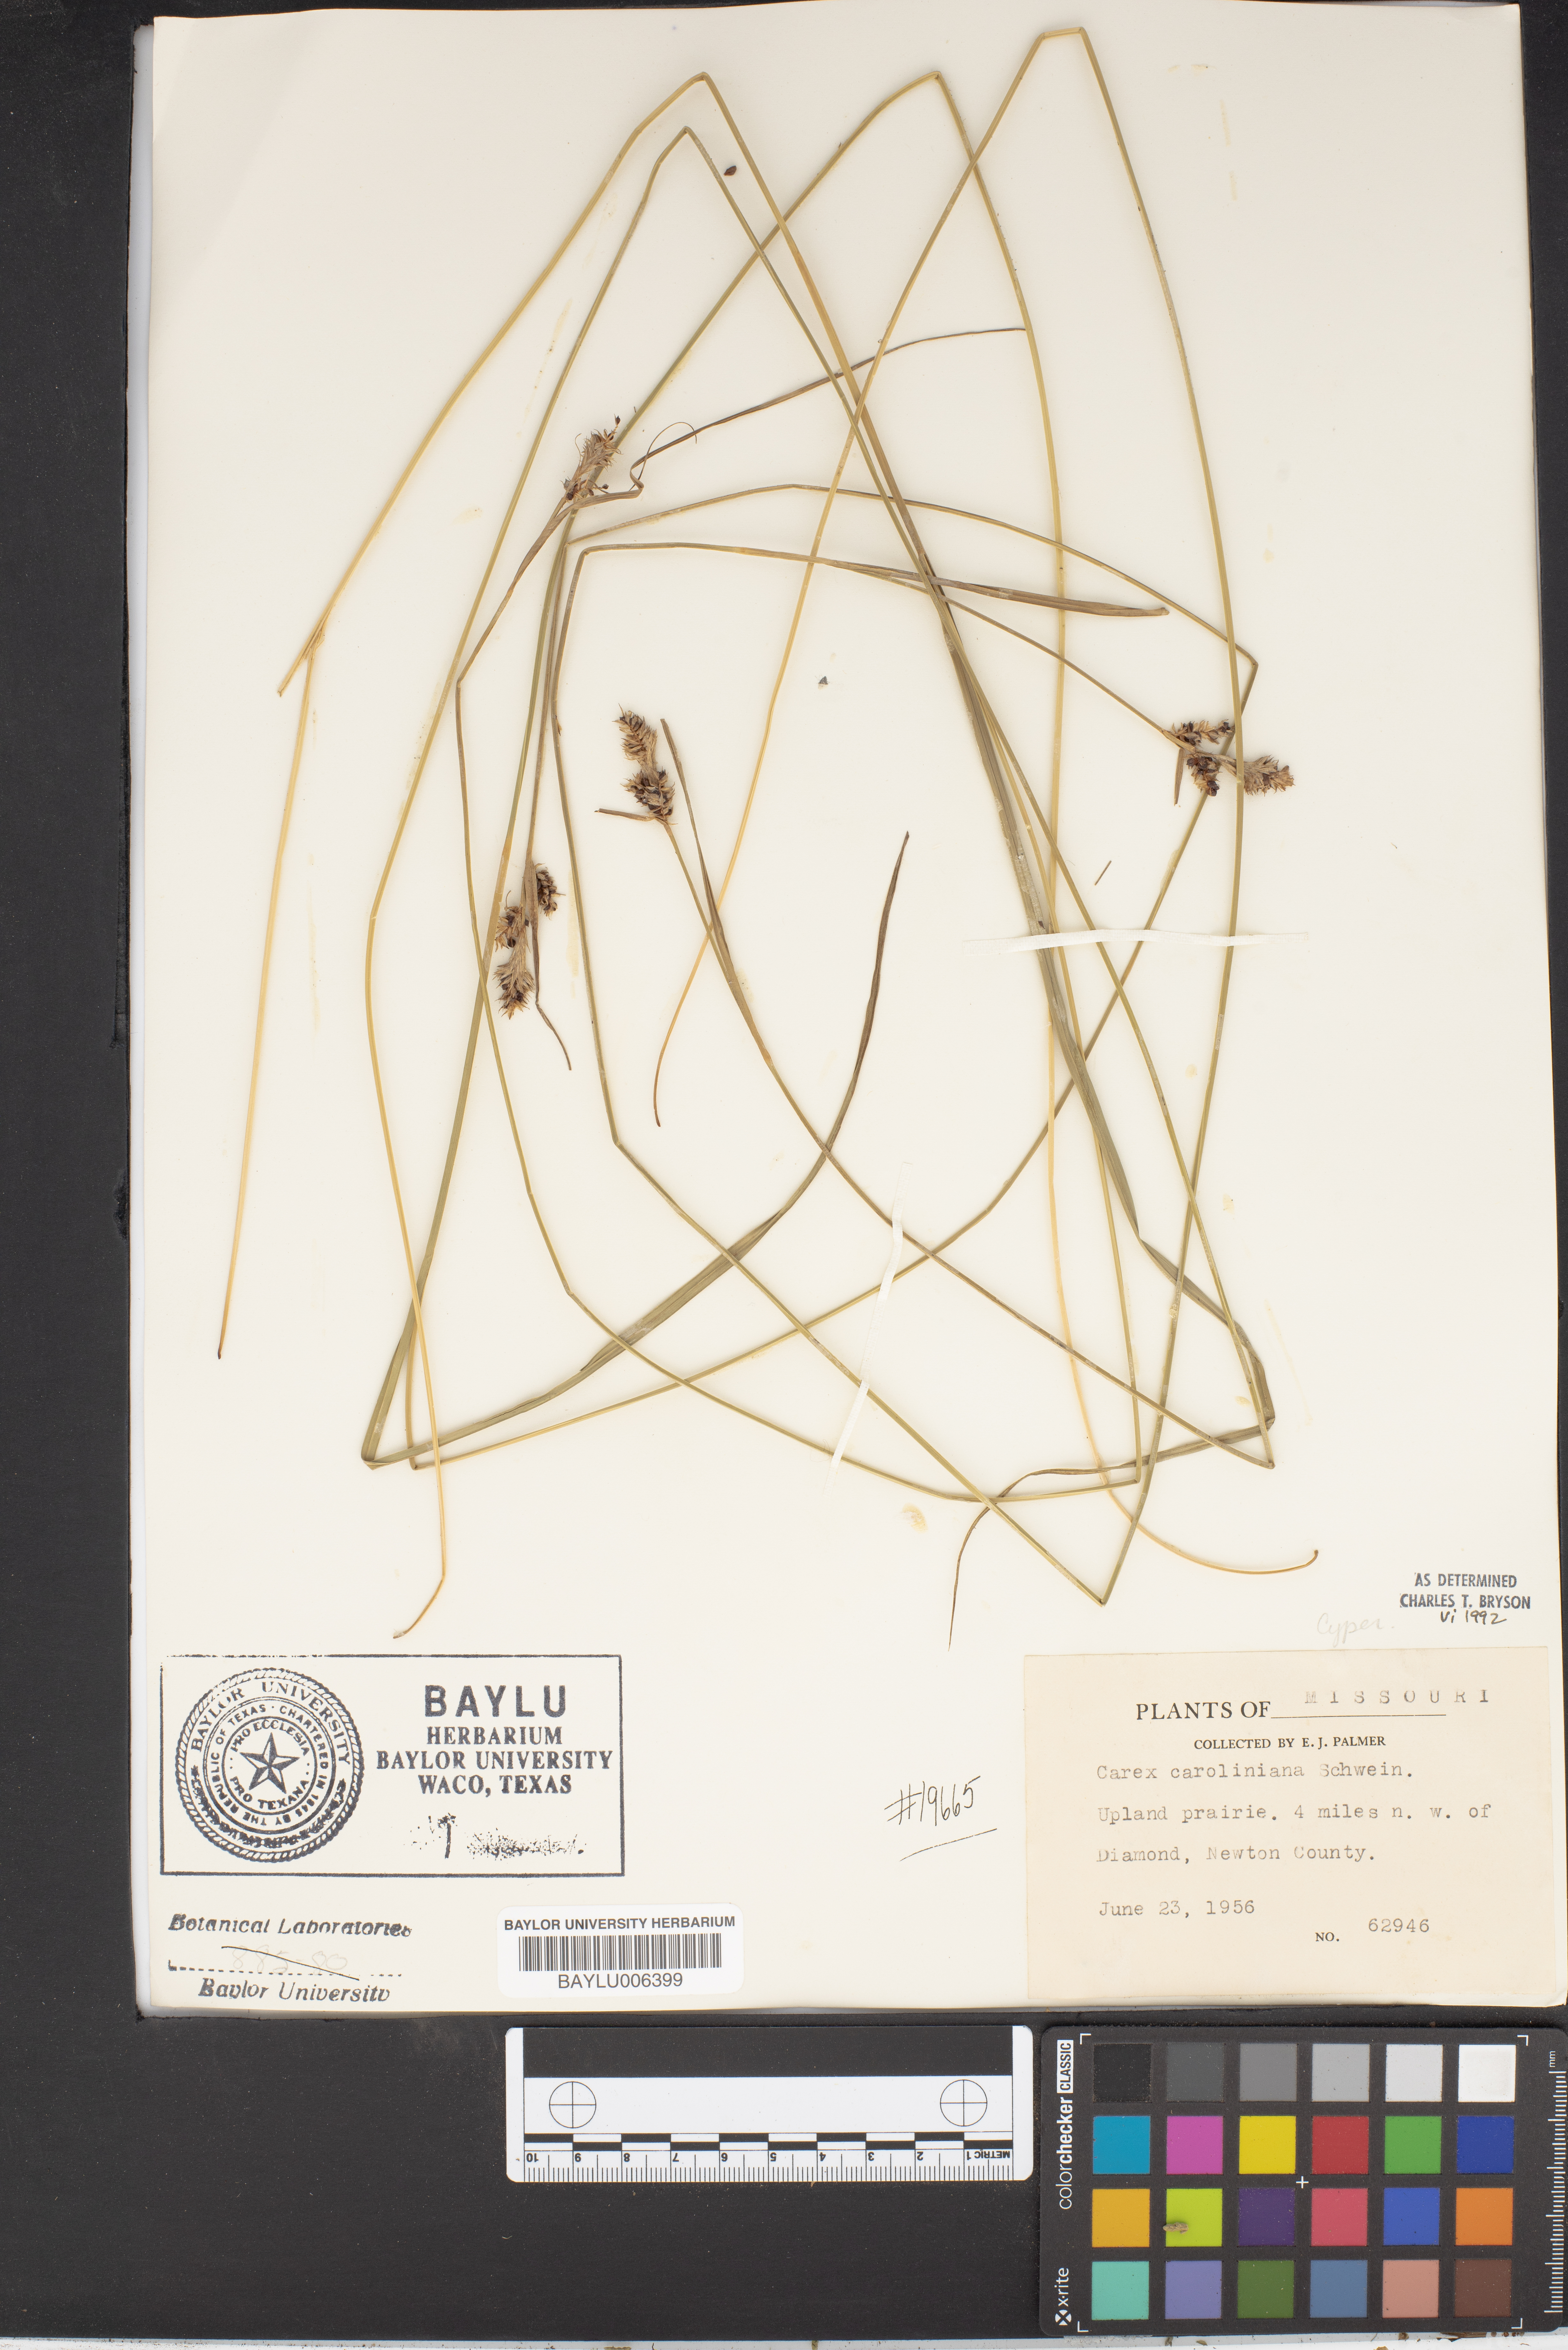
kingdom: Plantae
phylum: Tracheophyta
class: Liliopsida
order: Poales
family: Cyperaceae
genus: Carex
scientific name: Carex caroliniana
